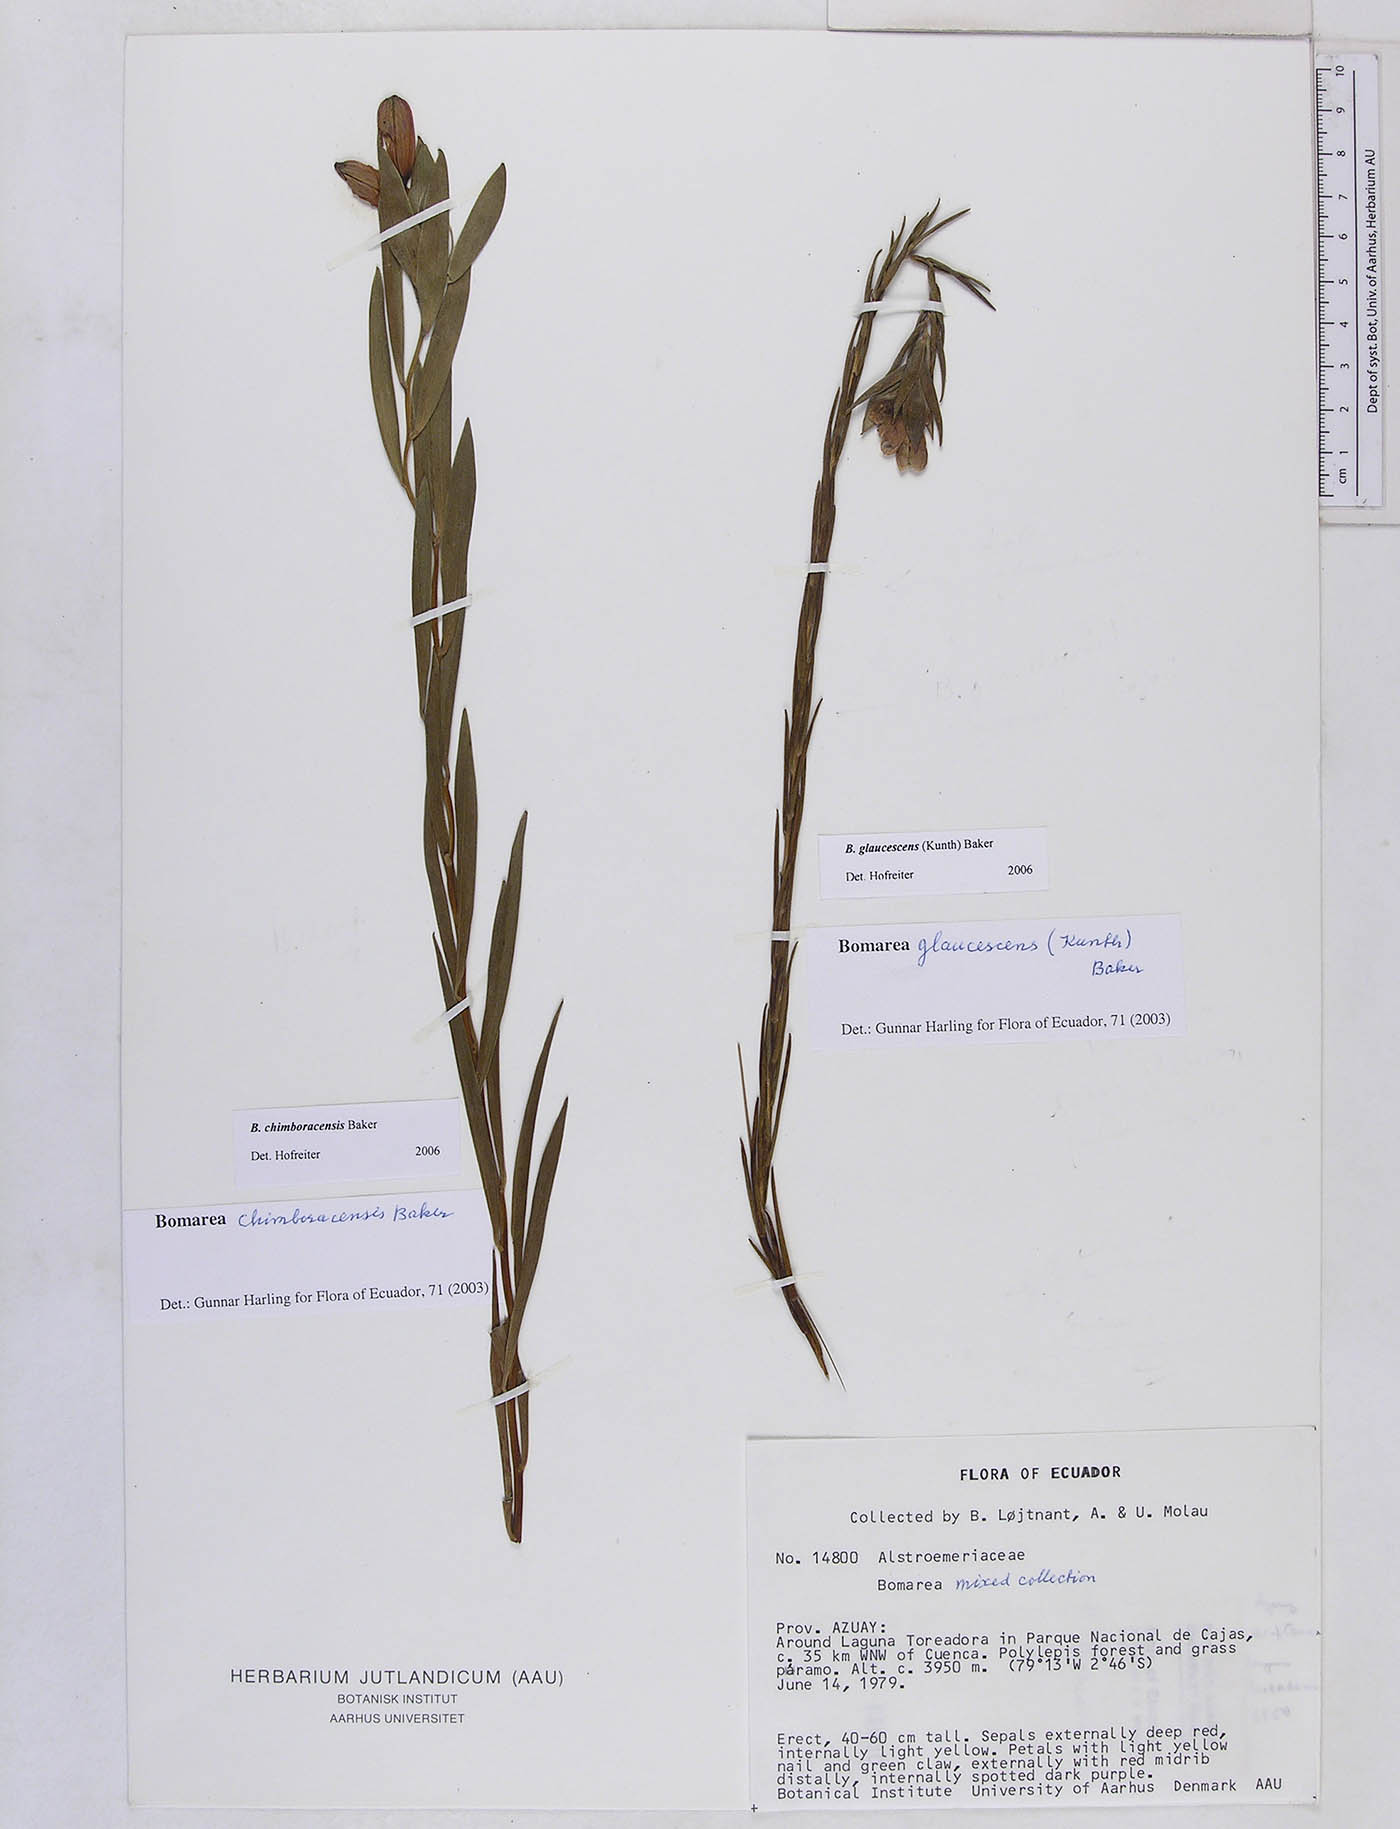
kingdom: Plantae
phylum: Tracheophyta
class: Liliopsida
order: Liliales
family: Alstroemeriaceae
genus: Bomarea
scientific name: Bomarea chimboracensis
